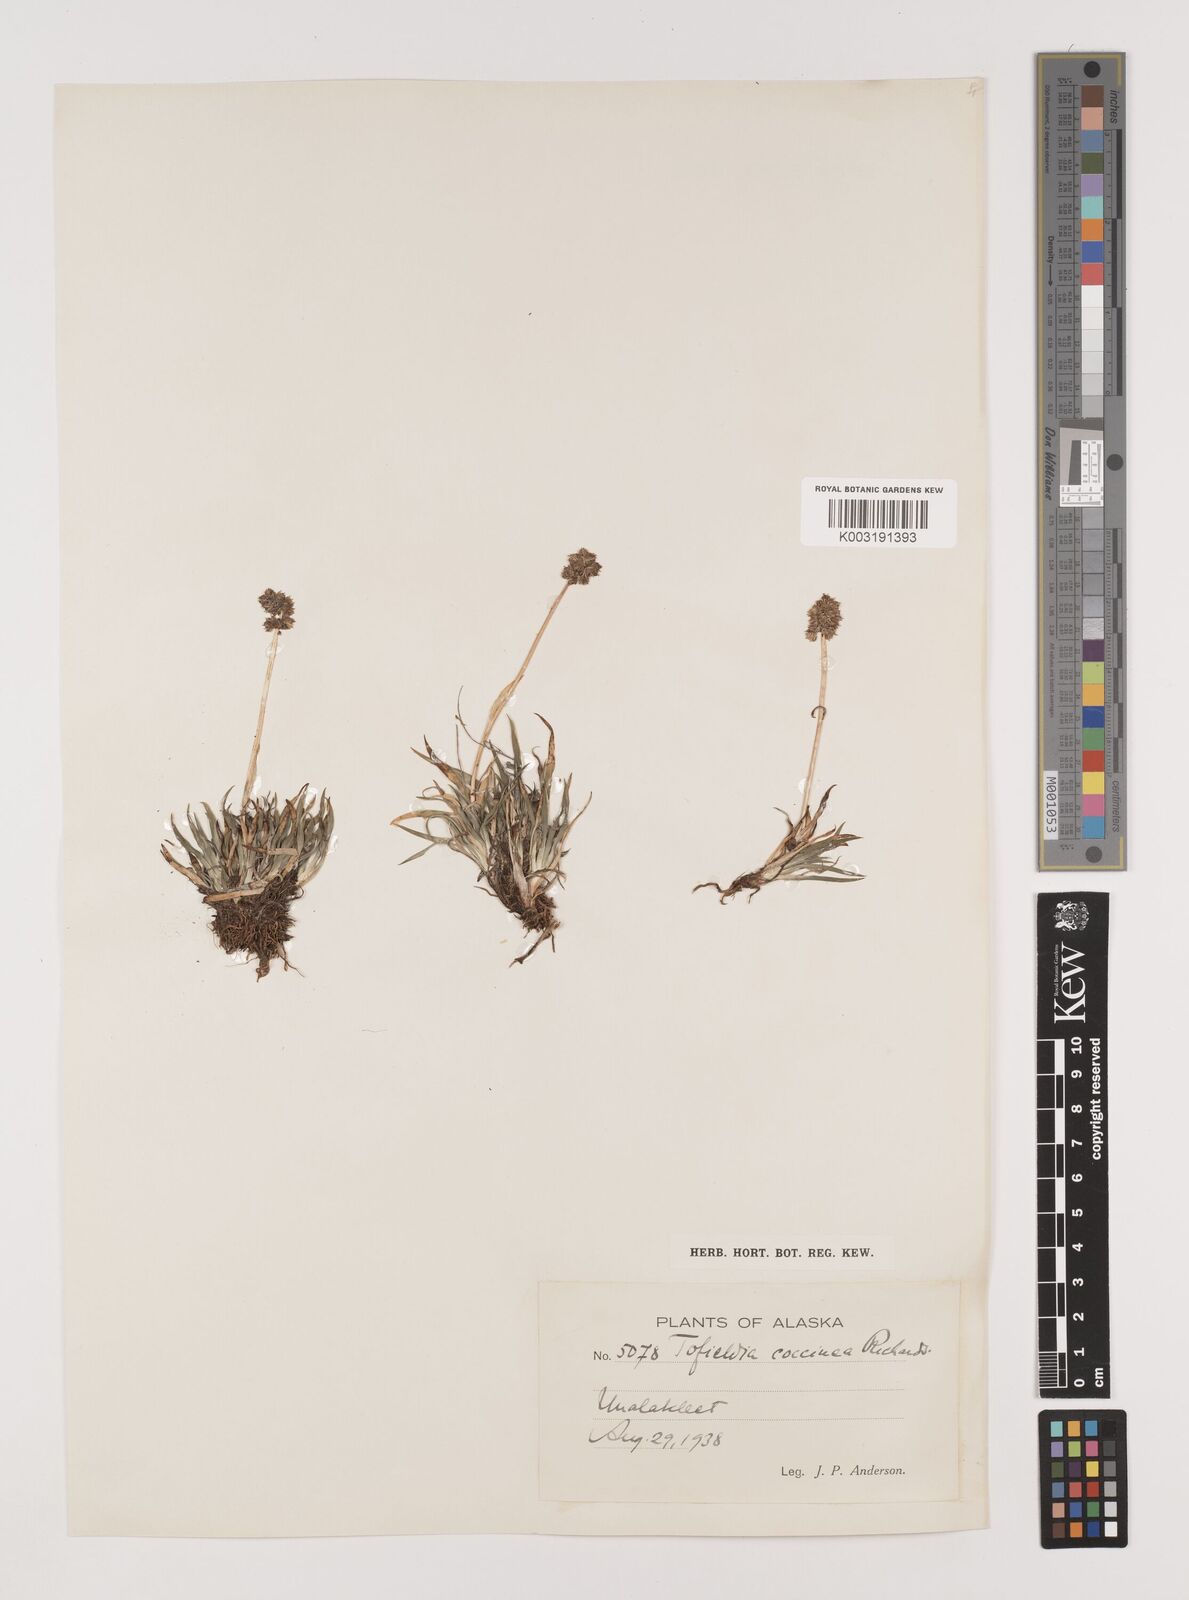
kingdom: Plantae
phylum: Tracheophyta
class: Liliopsida
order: Alismatales
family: Tofieldiaceae
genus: Tofieldia
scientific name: Tofieldia coccinea
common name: Northern false asphodel
